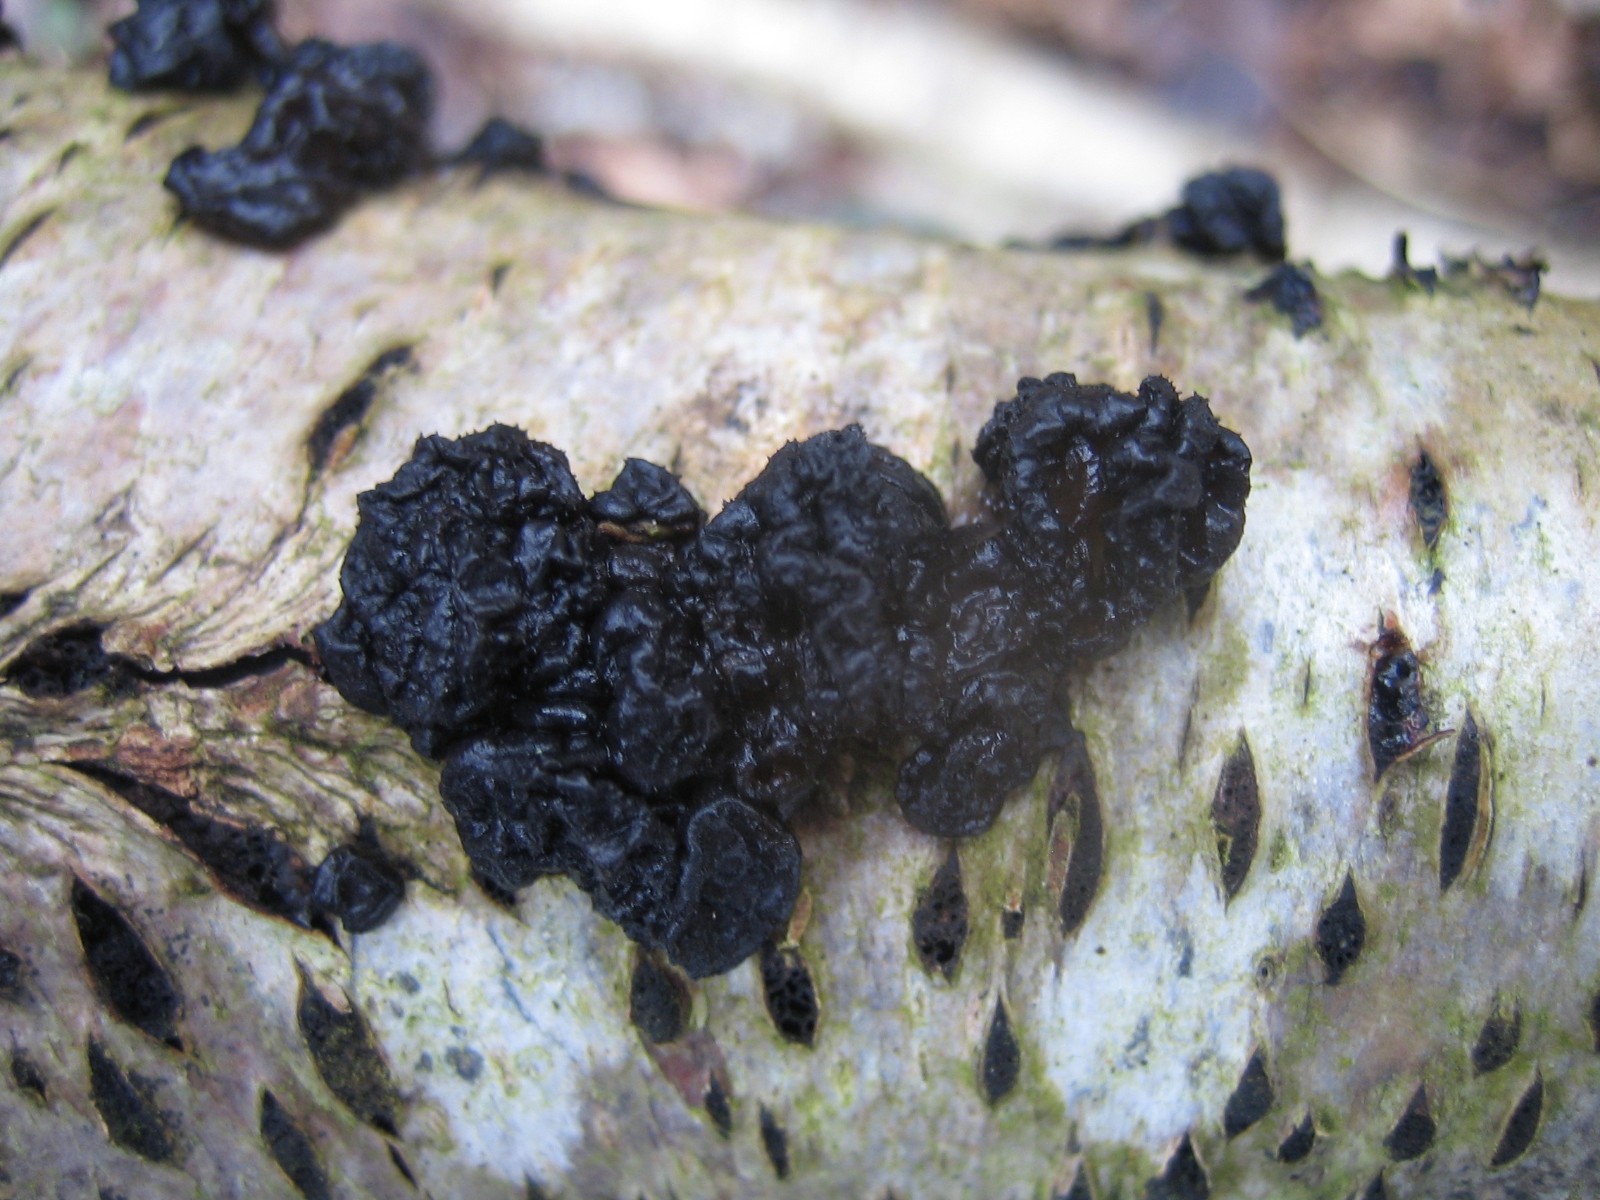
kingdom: Fungi
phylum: Basidiomycota
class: Agaricomycetes
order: Auriculariales
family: Auriculariaceae
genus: Exidia
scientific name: Exidia nigricans
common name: almindelig bævretop
